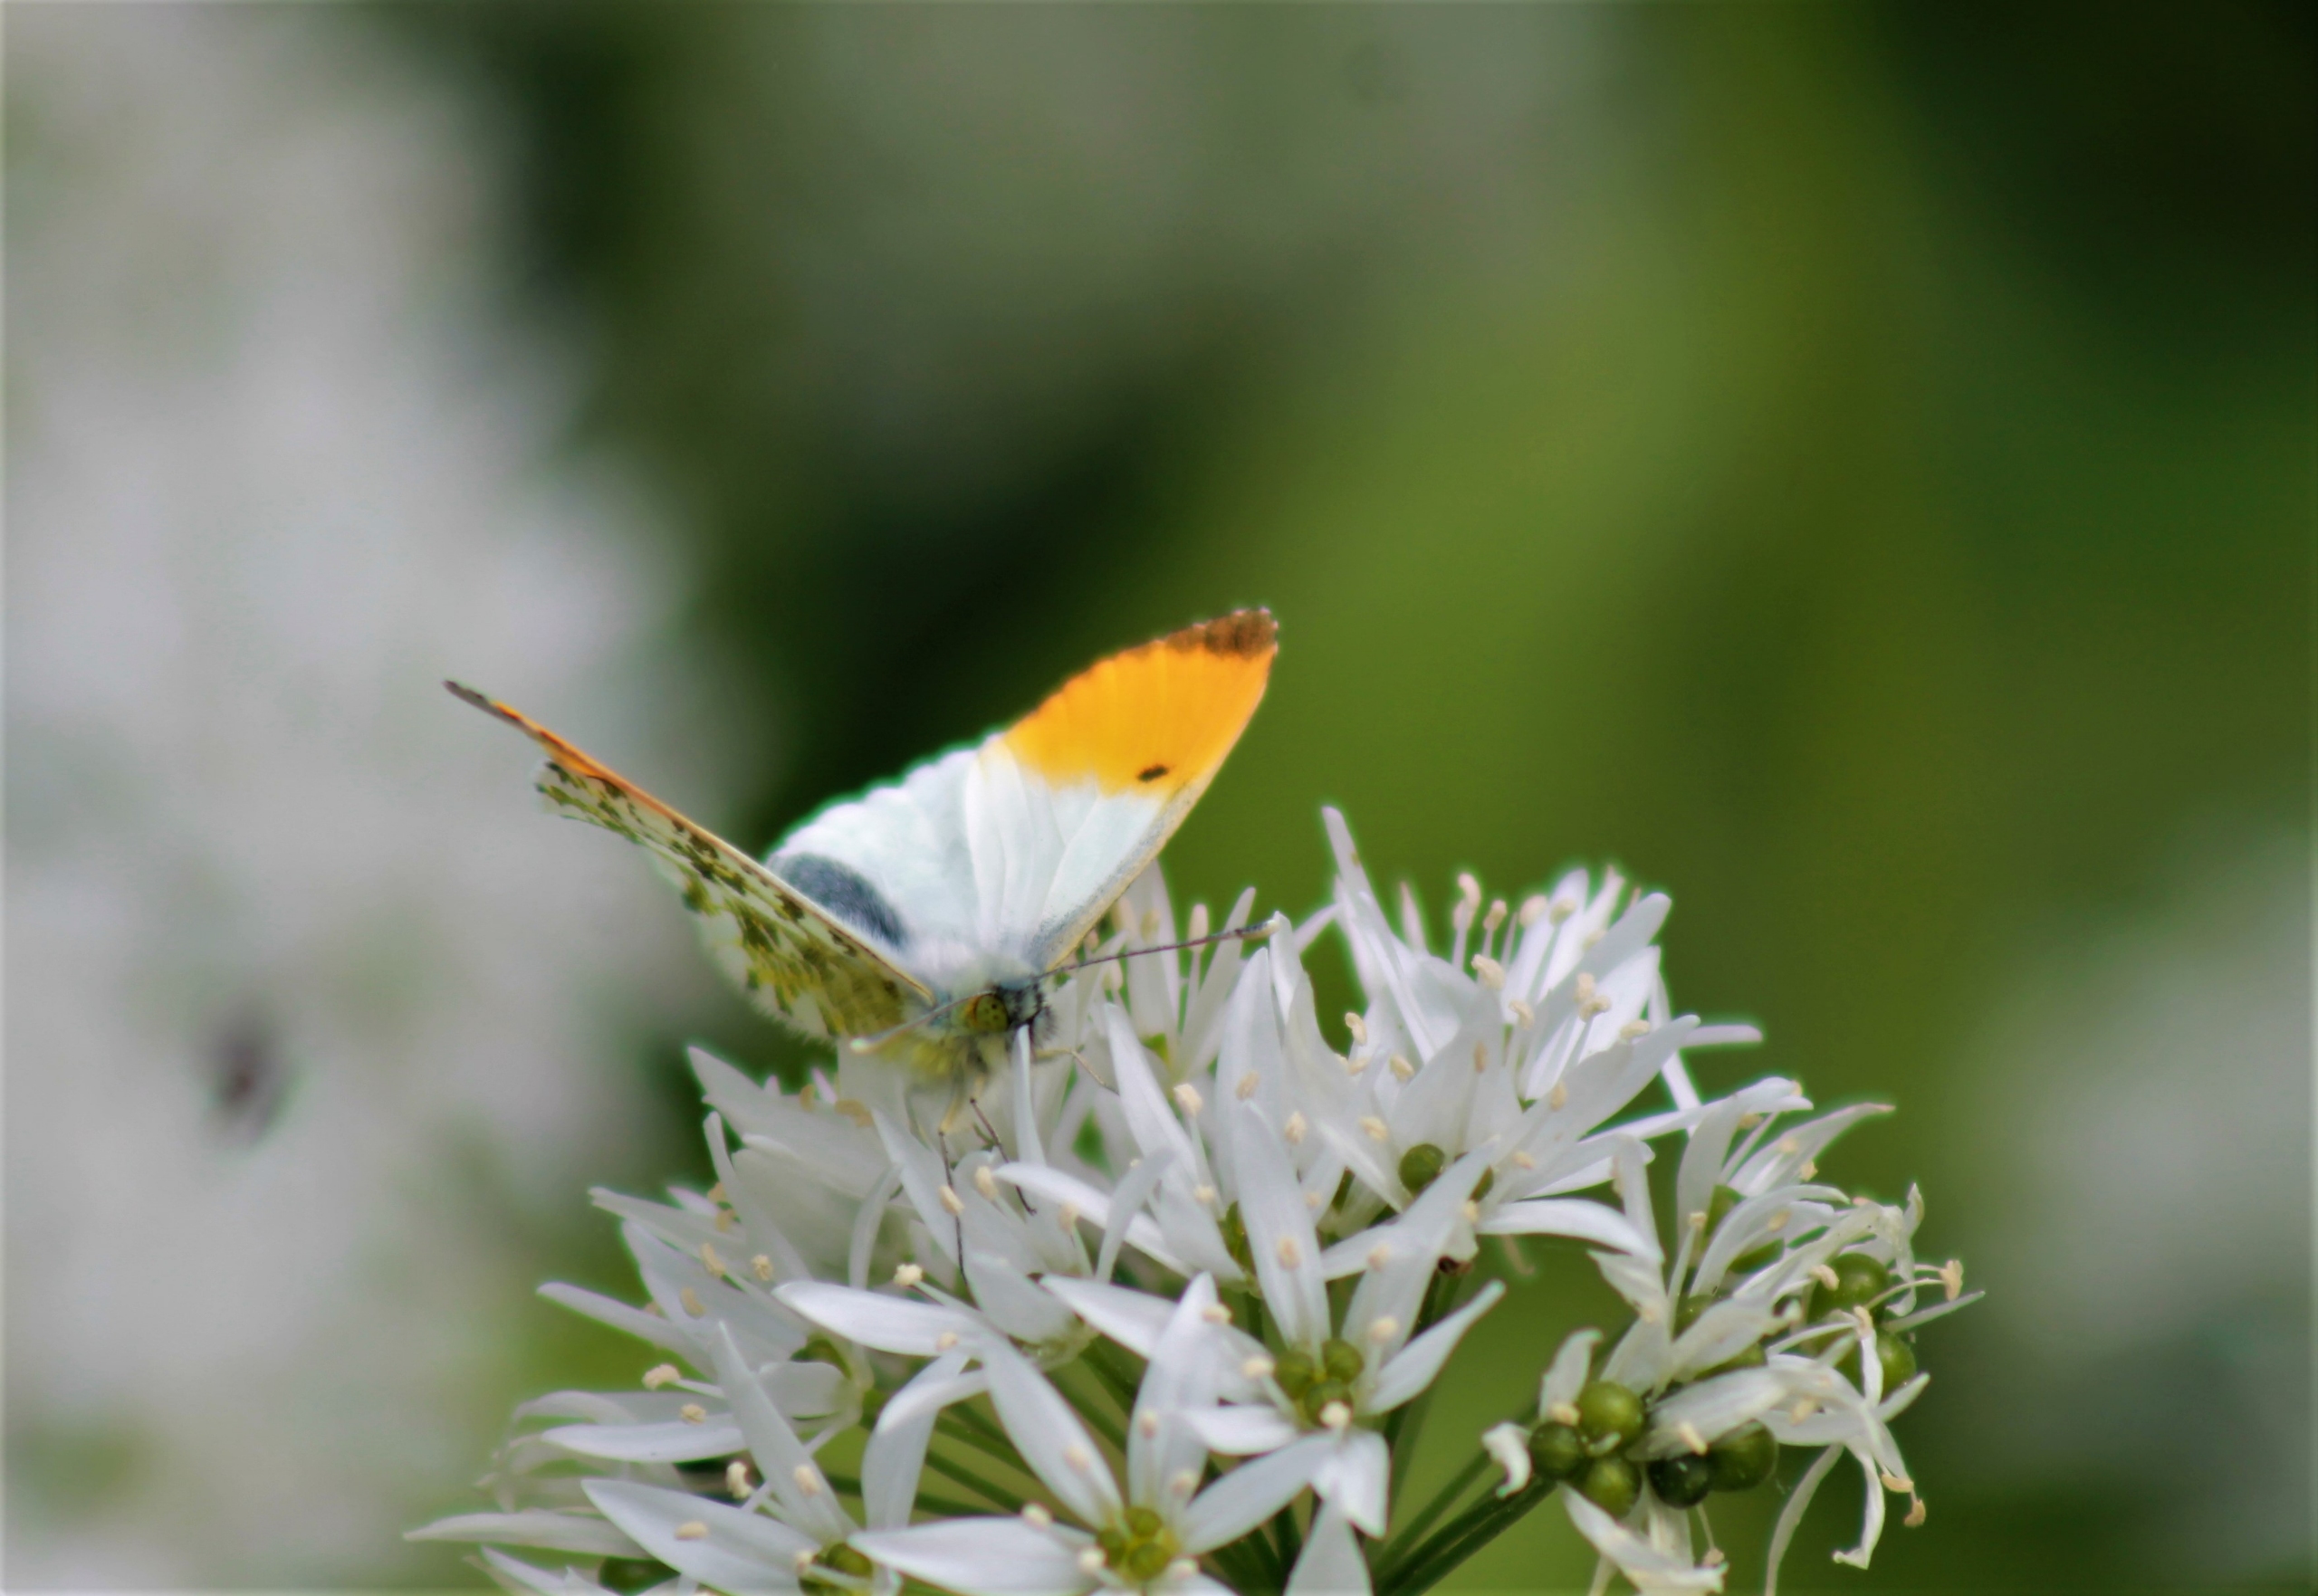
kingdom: Animalia
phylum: Arthropoda
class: Insecta
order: Lepidoptera
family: Pieridae
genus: Anthocharis
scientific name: Anthocharis cardamines
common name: Aurora
